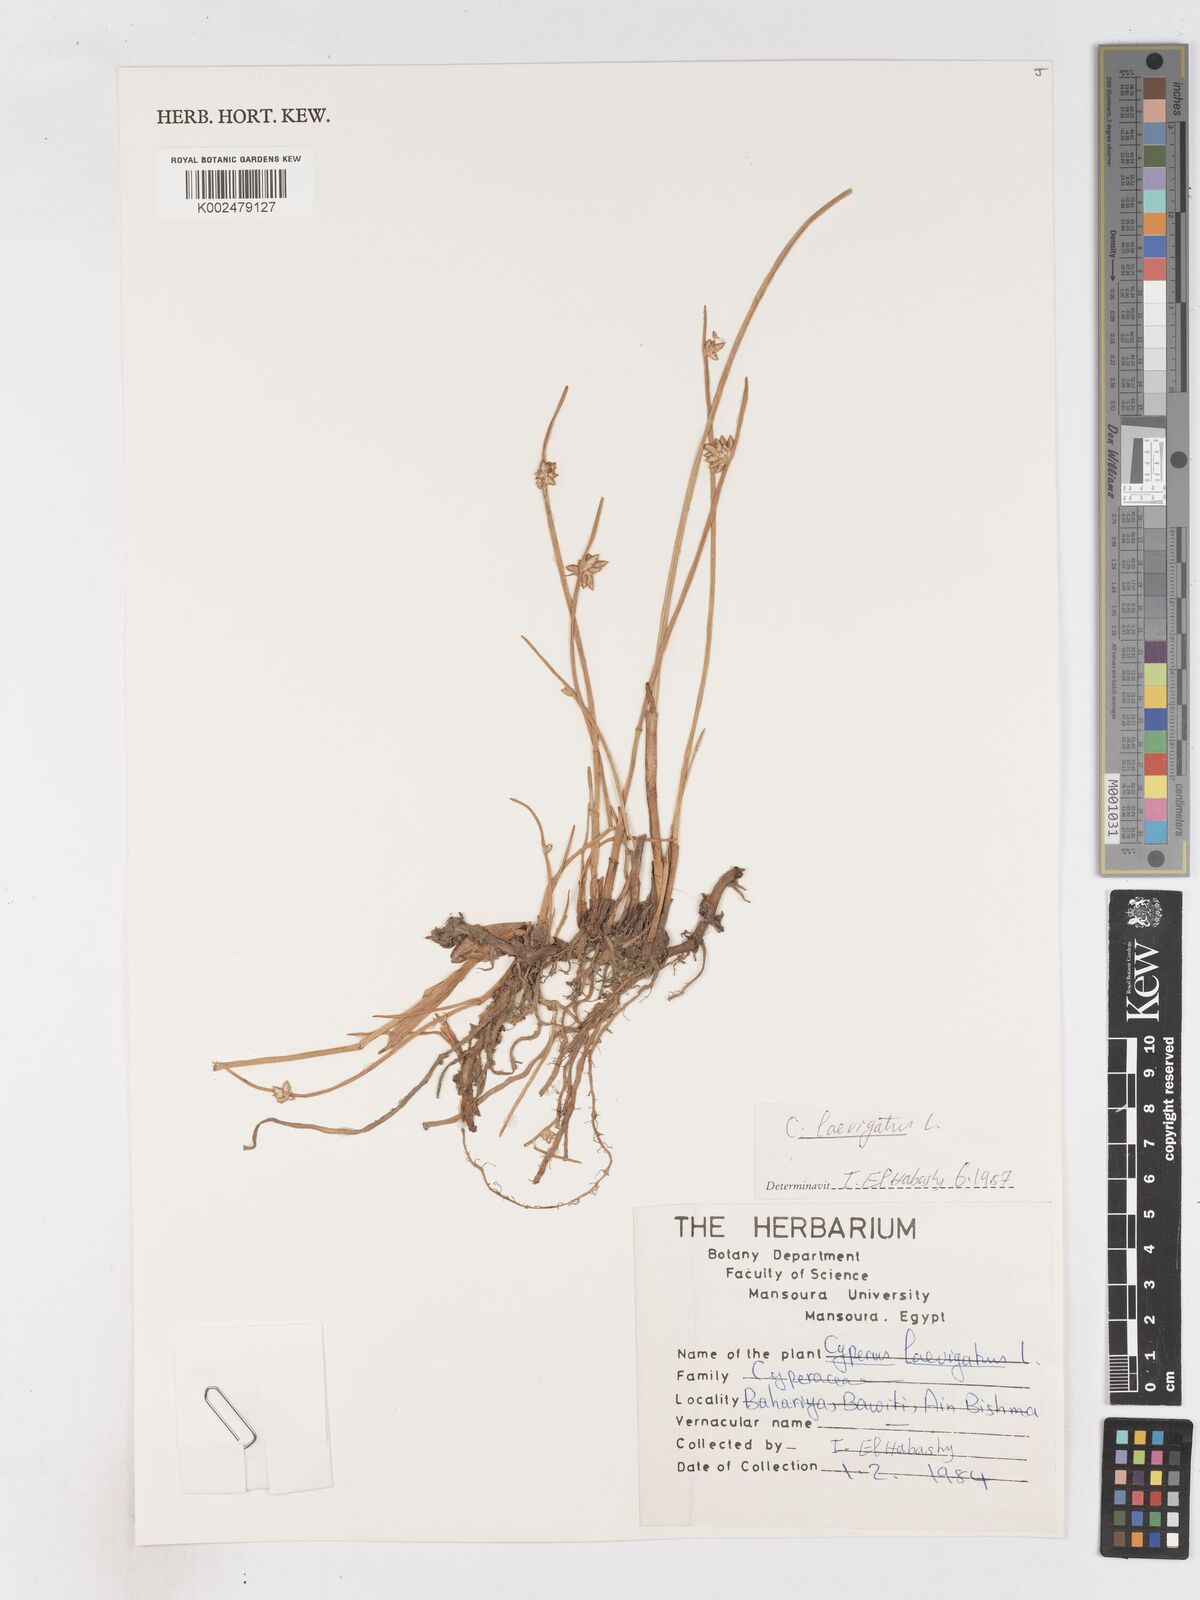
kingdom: Plantae
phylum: Tracheophyta
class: Liliopsida
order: Poales
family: Cyperaceae
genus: Cyperus
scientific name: Cyperus laevigatus
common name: Smooth flat sedge
